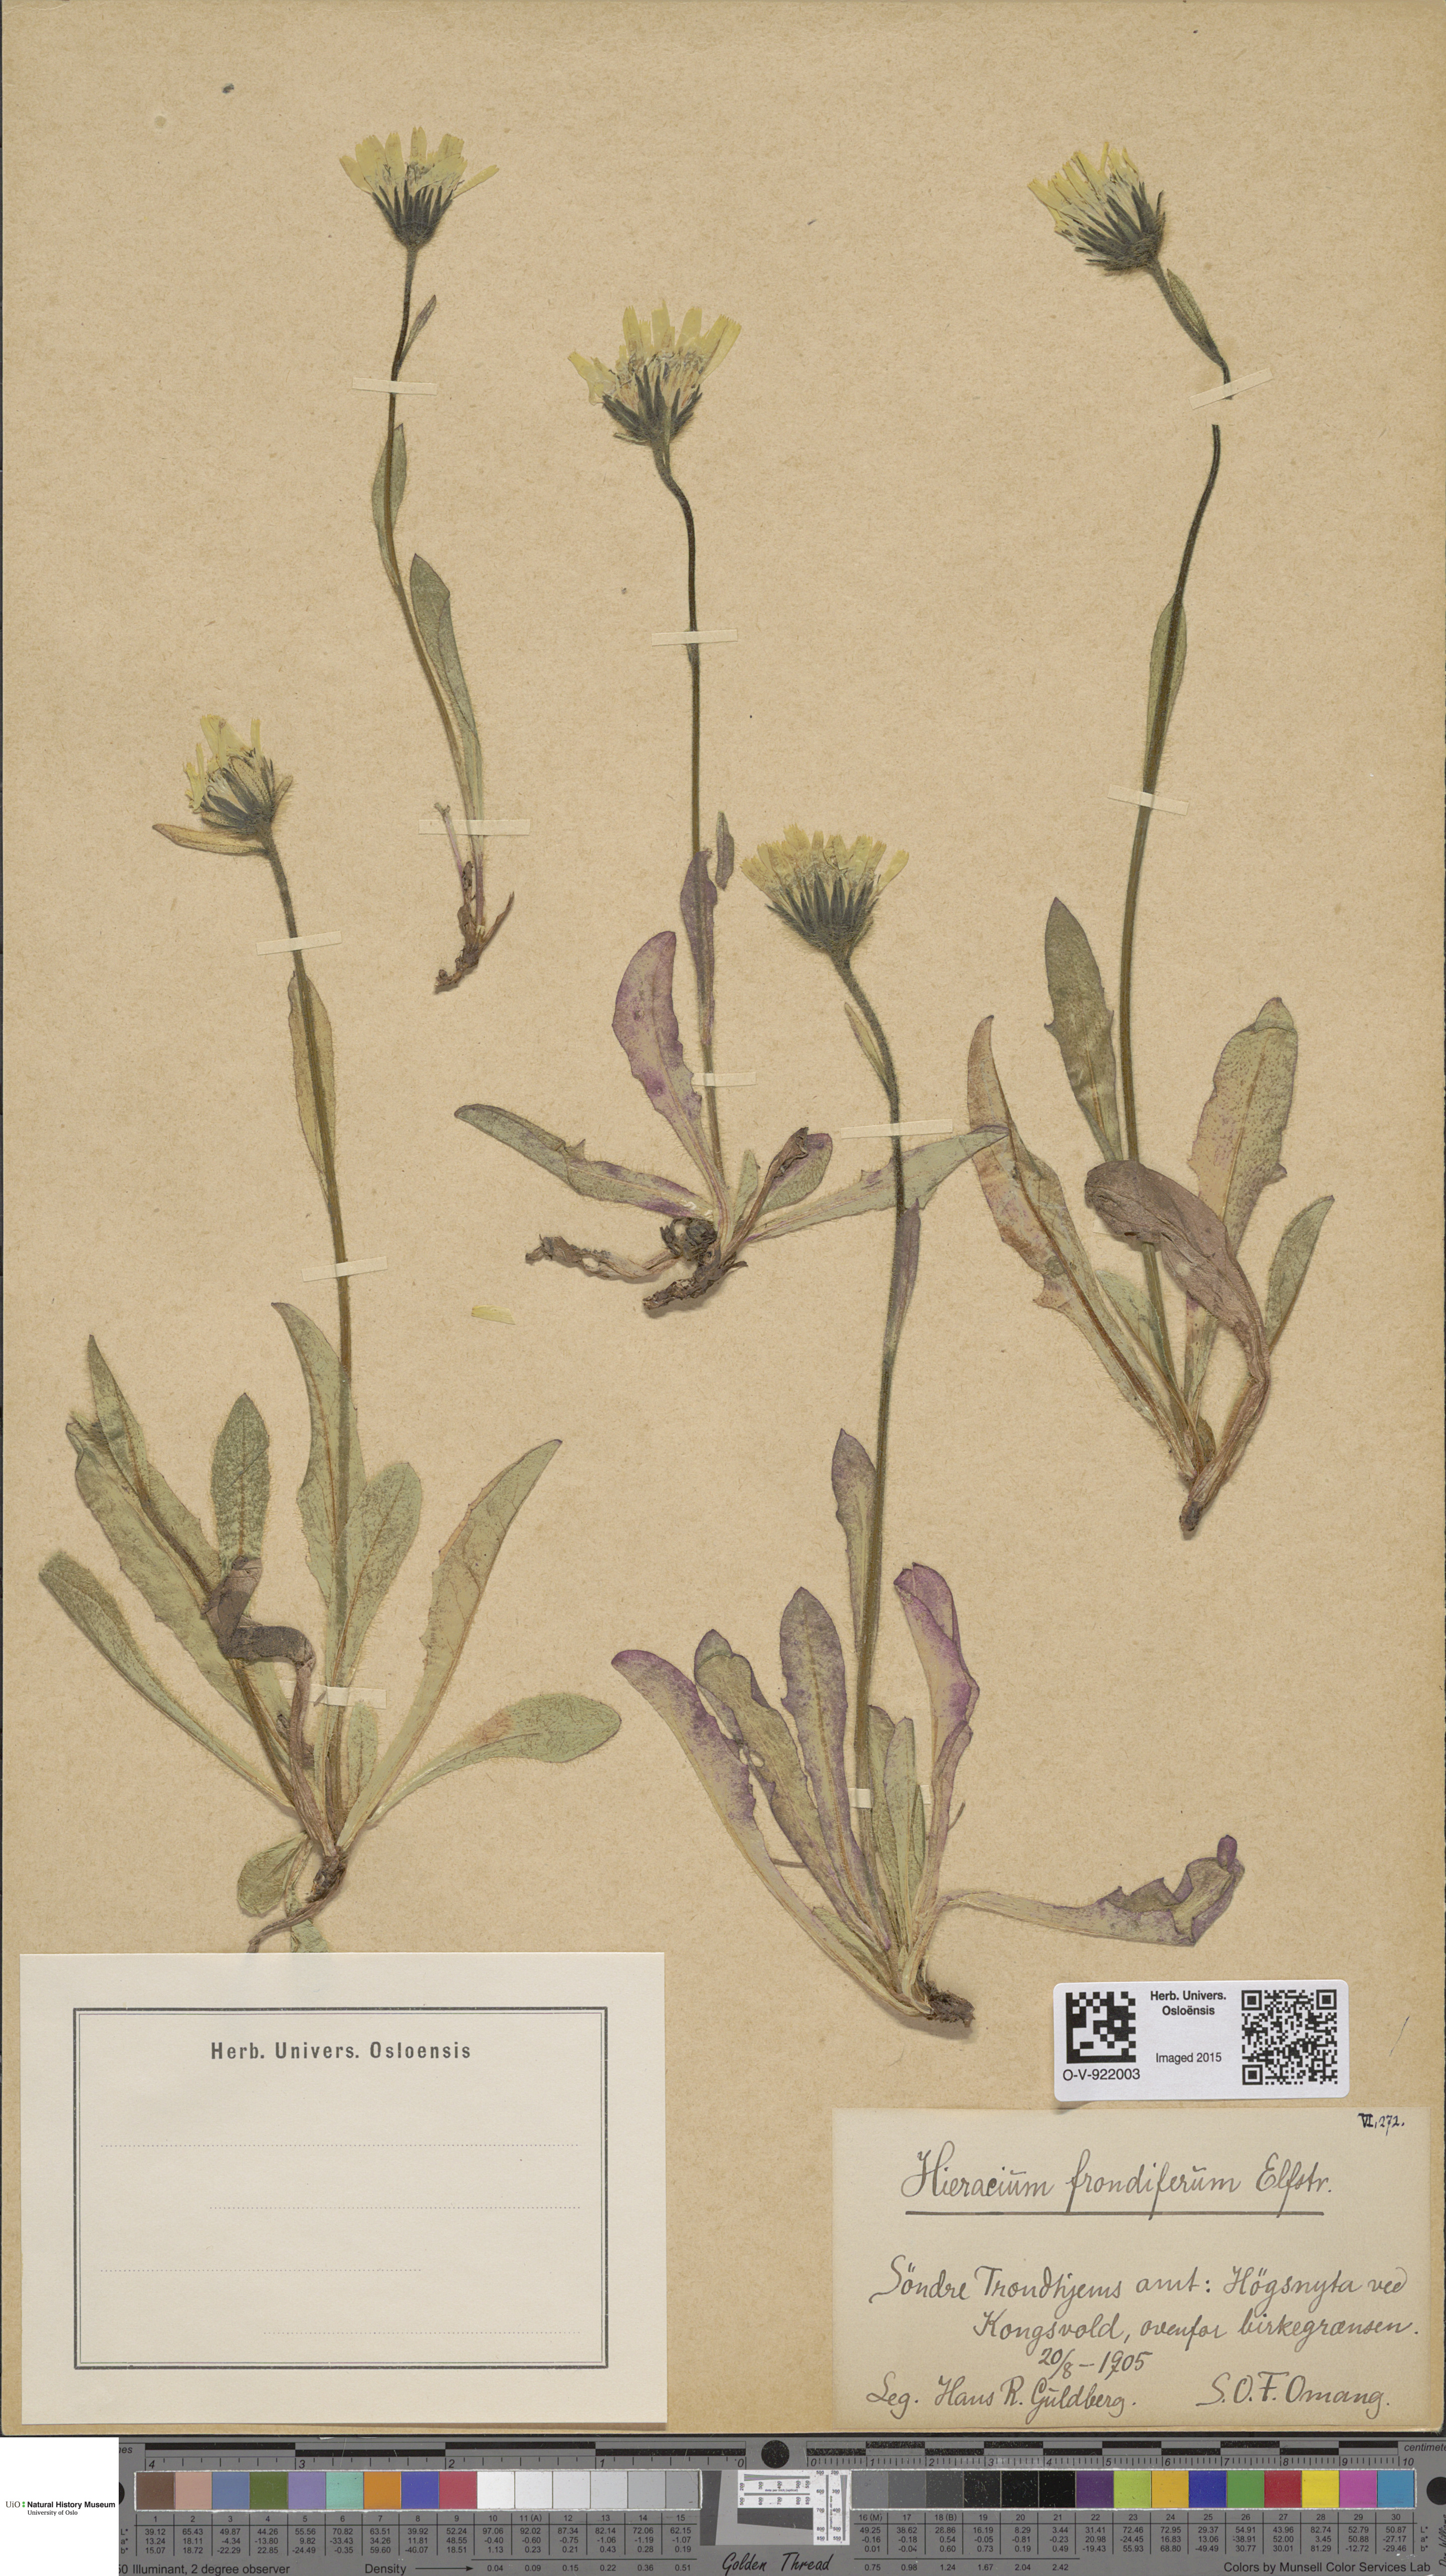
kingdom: Plantae
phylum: Tracheophyta
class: Magnoliopsida
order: Asterales
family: Asteraceae
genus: Hieracium
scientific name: Hieracium alpinum
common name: Alpine hawkweed
